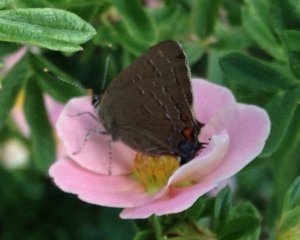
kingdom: Animalia
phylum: Arthropoda
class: Insecta
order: Lepidoptera
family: Lycaenidae
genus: Satyrium
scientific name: Satyrium calanus
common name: Banded Hairstreak
